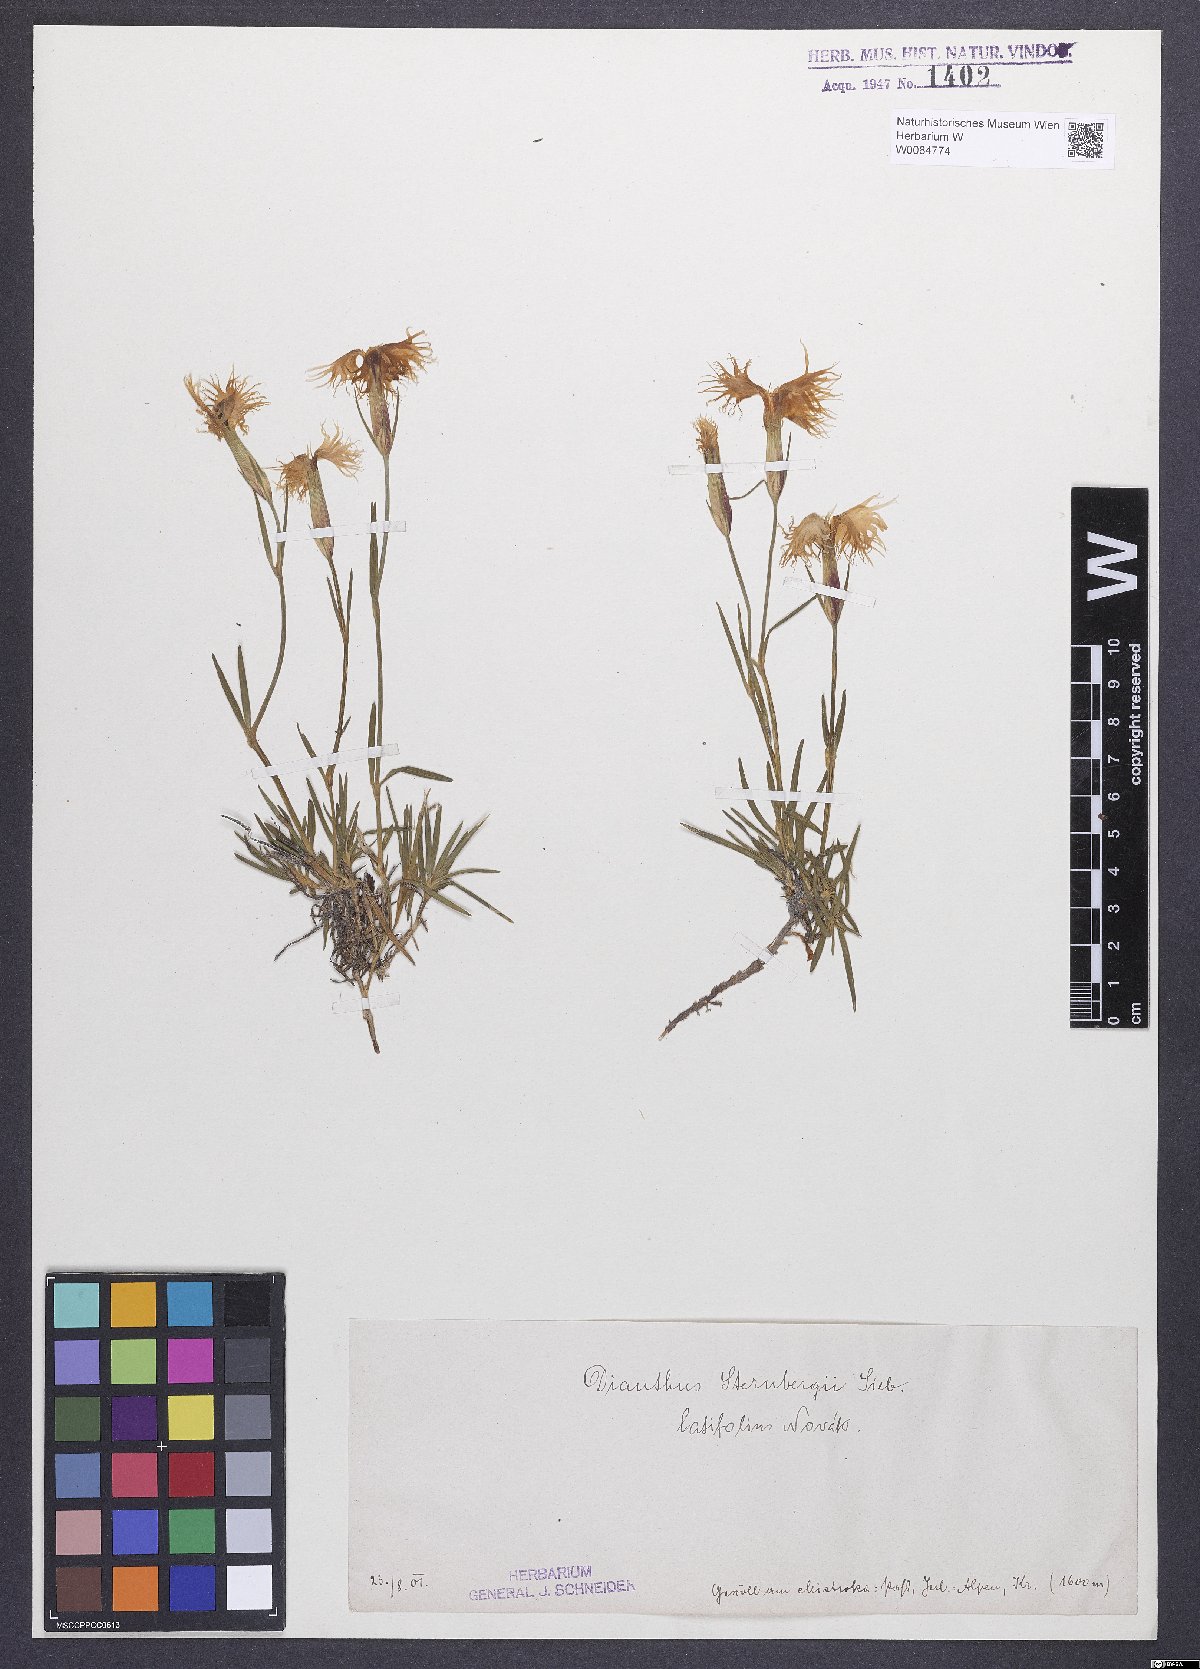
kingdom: Plantae
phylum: Tracheophyta
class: Magnoliopsida
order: Caryophyllales
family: Caryophyllaceae
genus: Dianthus
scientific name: Dianthus monspessulanus
